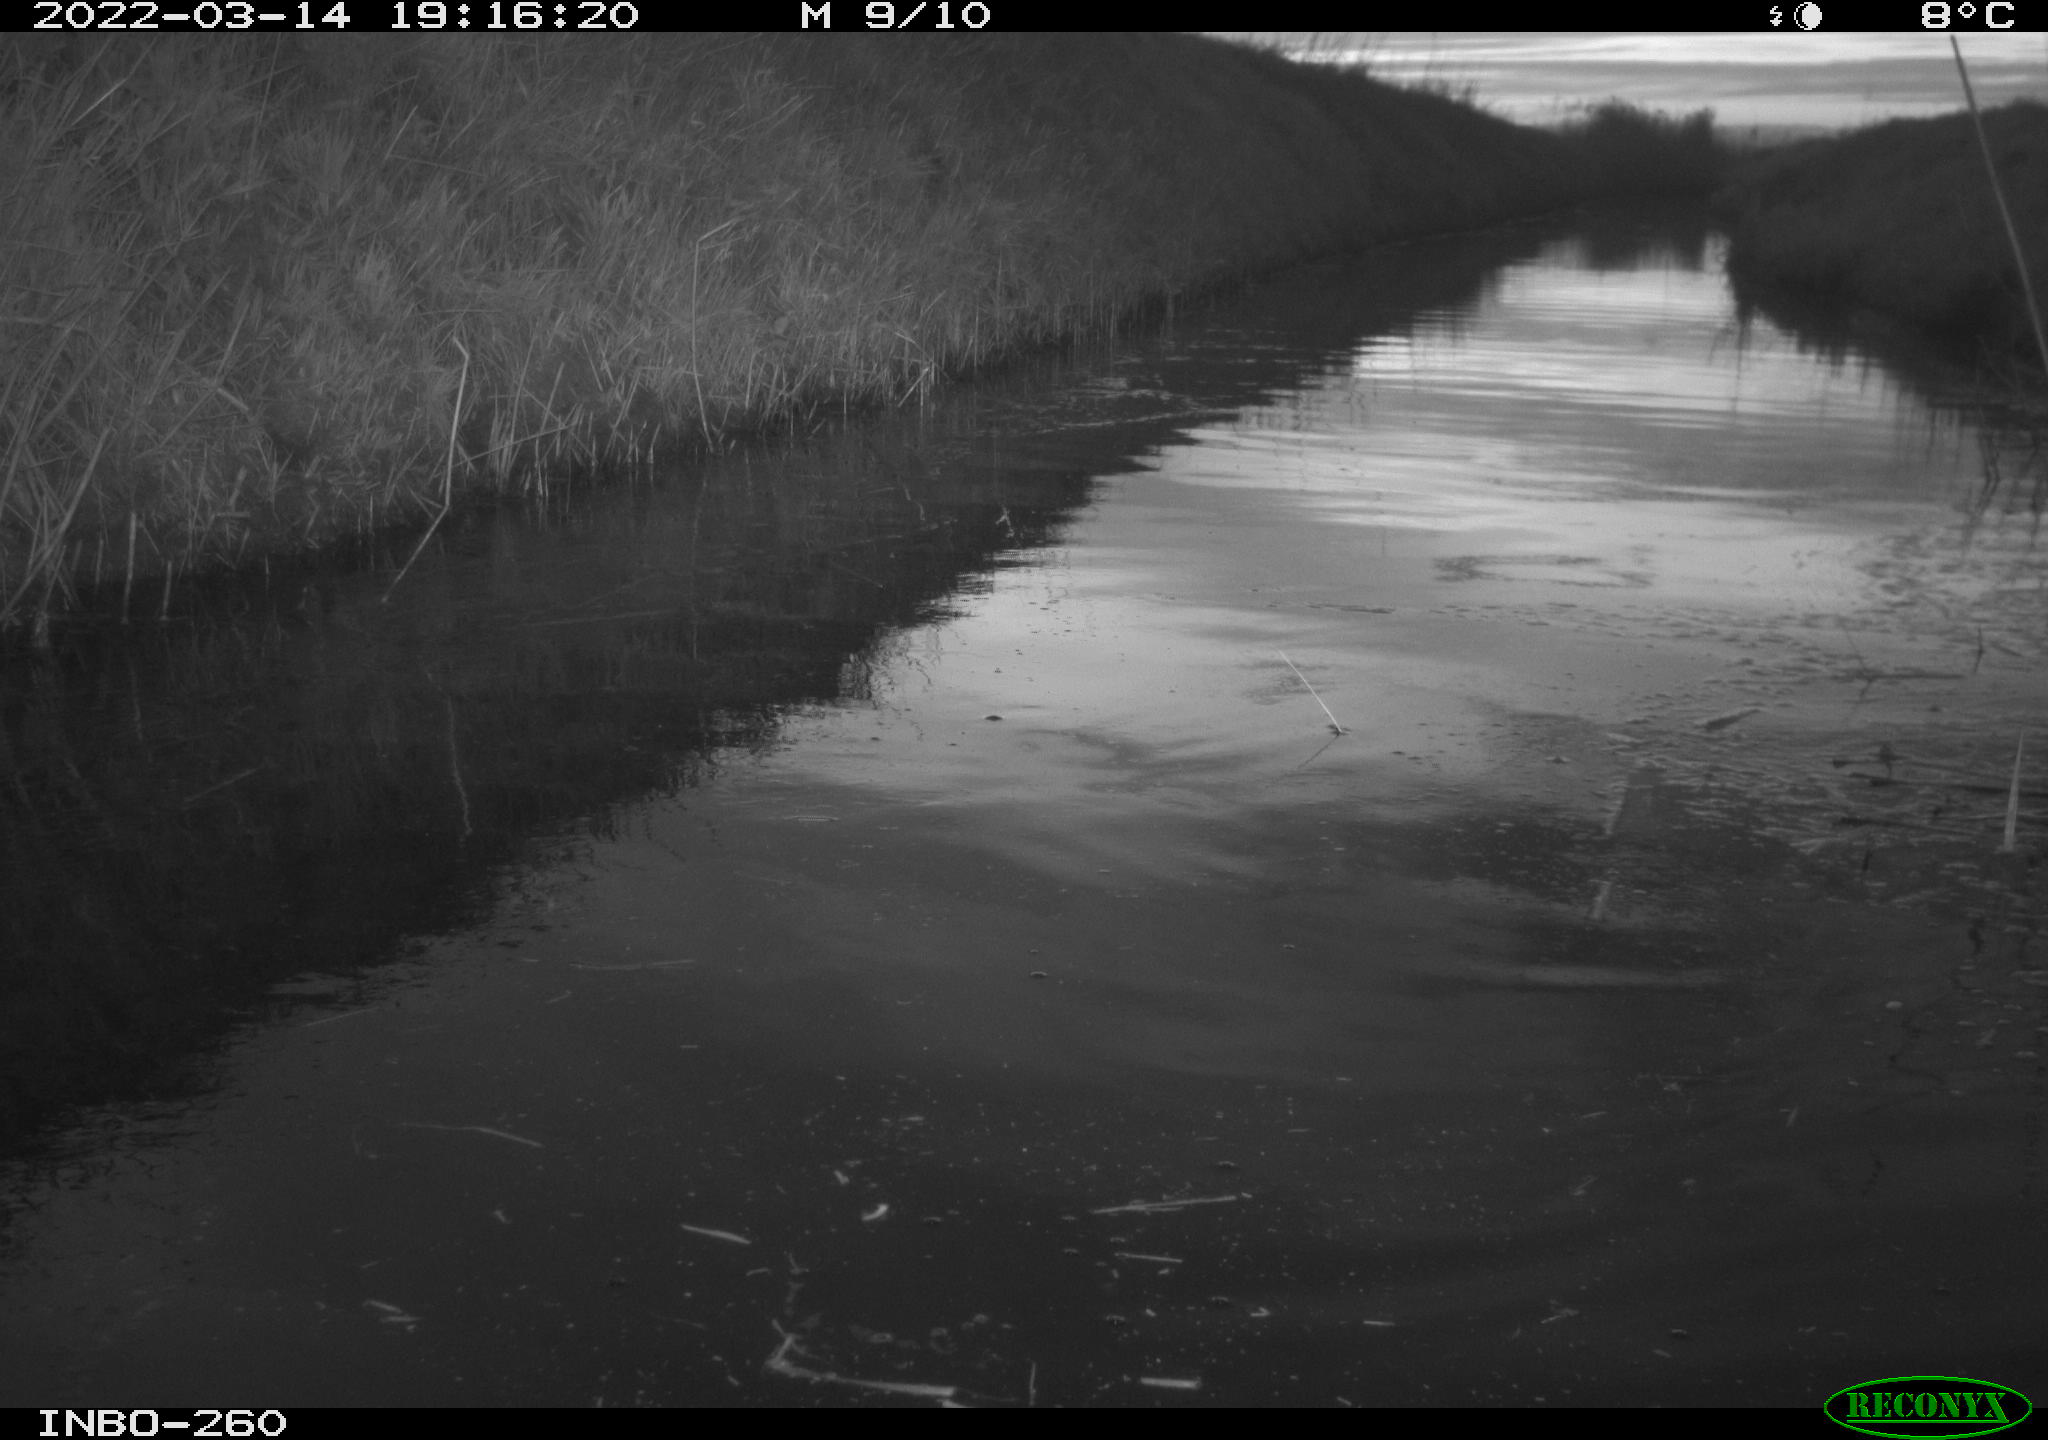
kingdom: Animalia
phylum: Chordata
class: Aves
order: Gruiformes
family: Rallidae
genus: Fulica
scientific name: Fulica atra
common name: Eurasian coot
